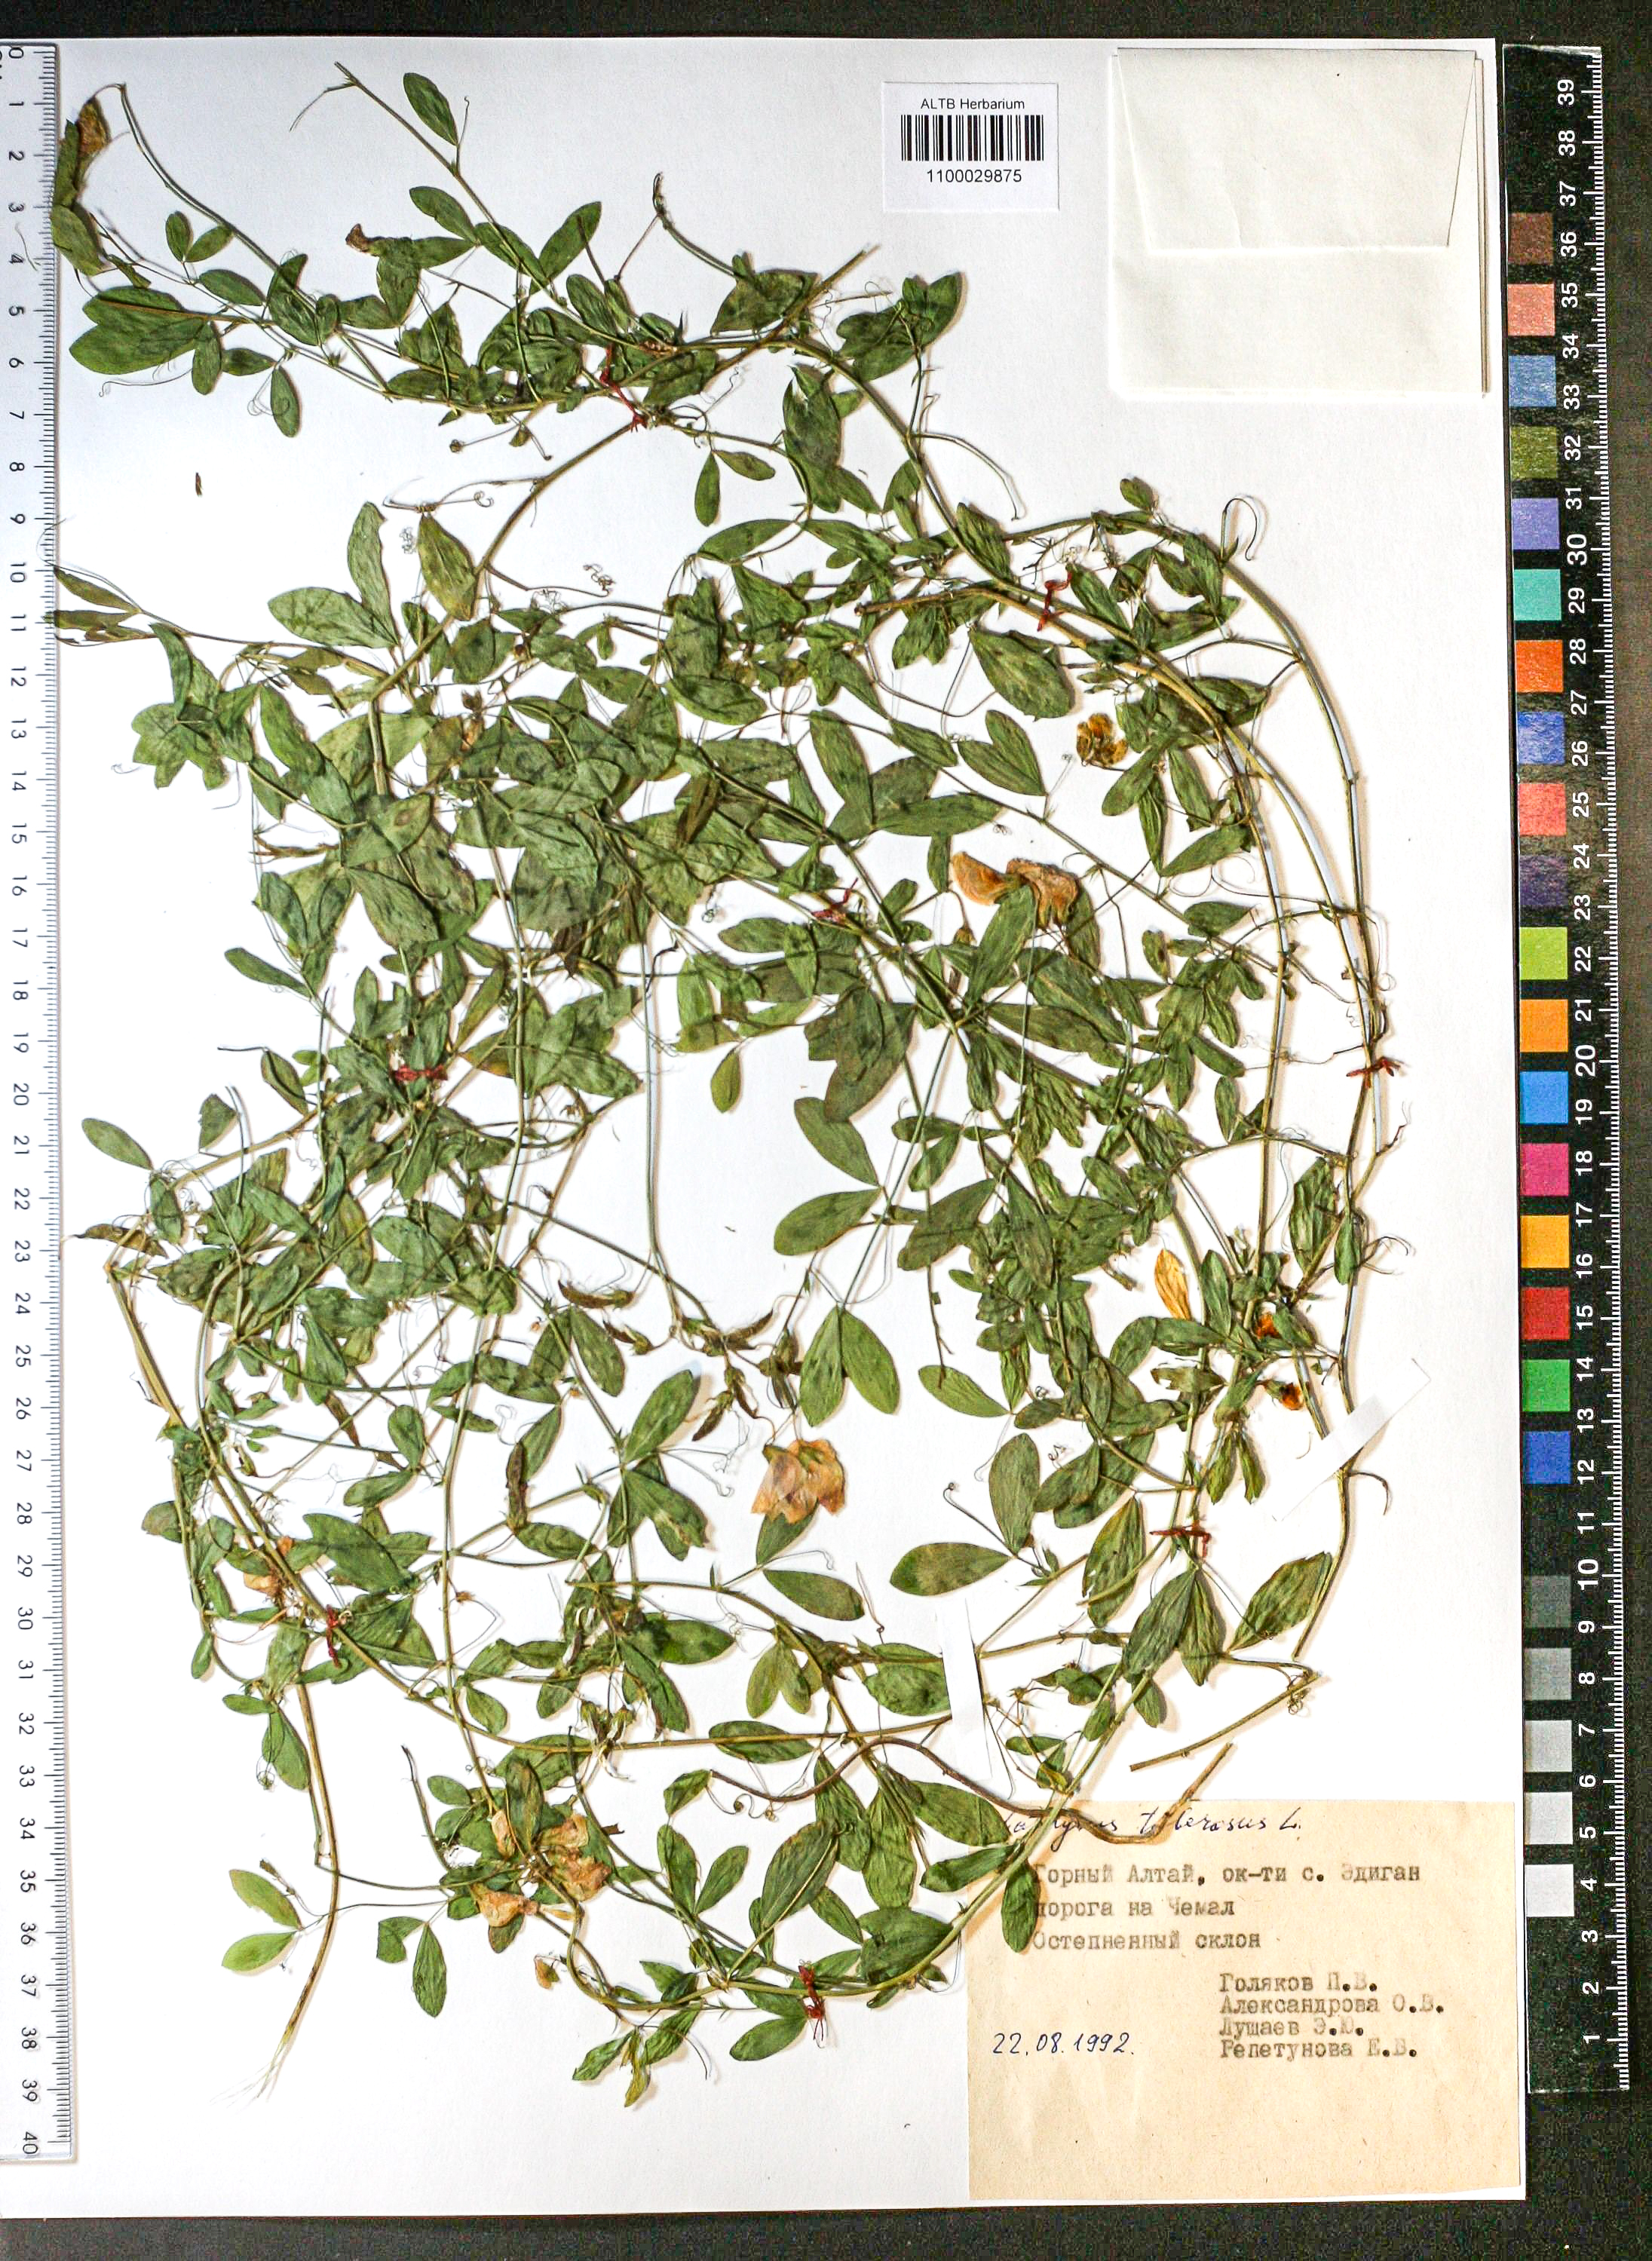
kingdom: Plantae
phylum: Tracheophyta
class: Magnoliopsida
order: Fabales
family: Fabaceae
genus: Lathyrus
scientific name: Lathyrus tuberosus
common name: Tuberous pea
